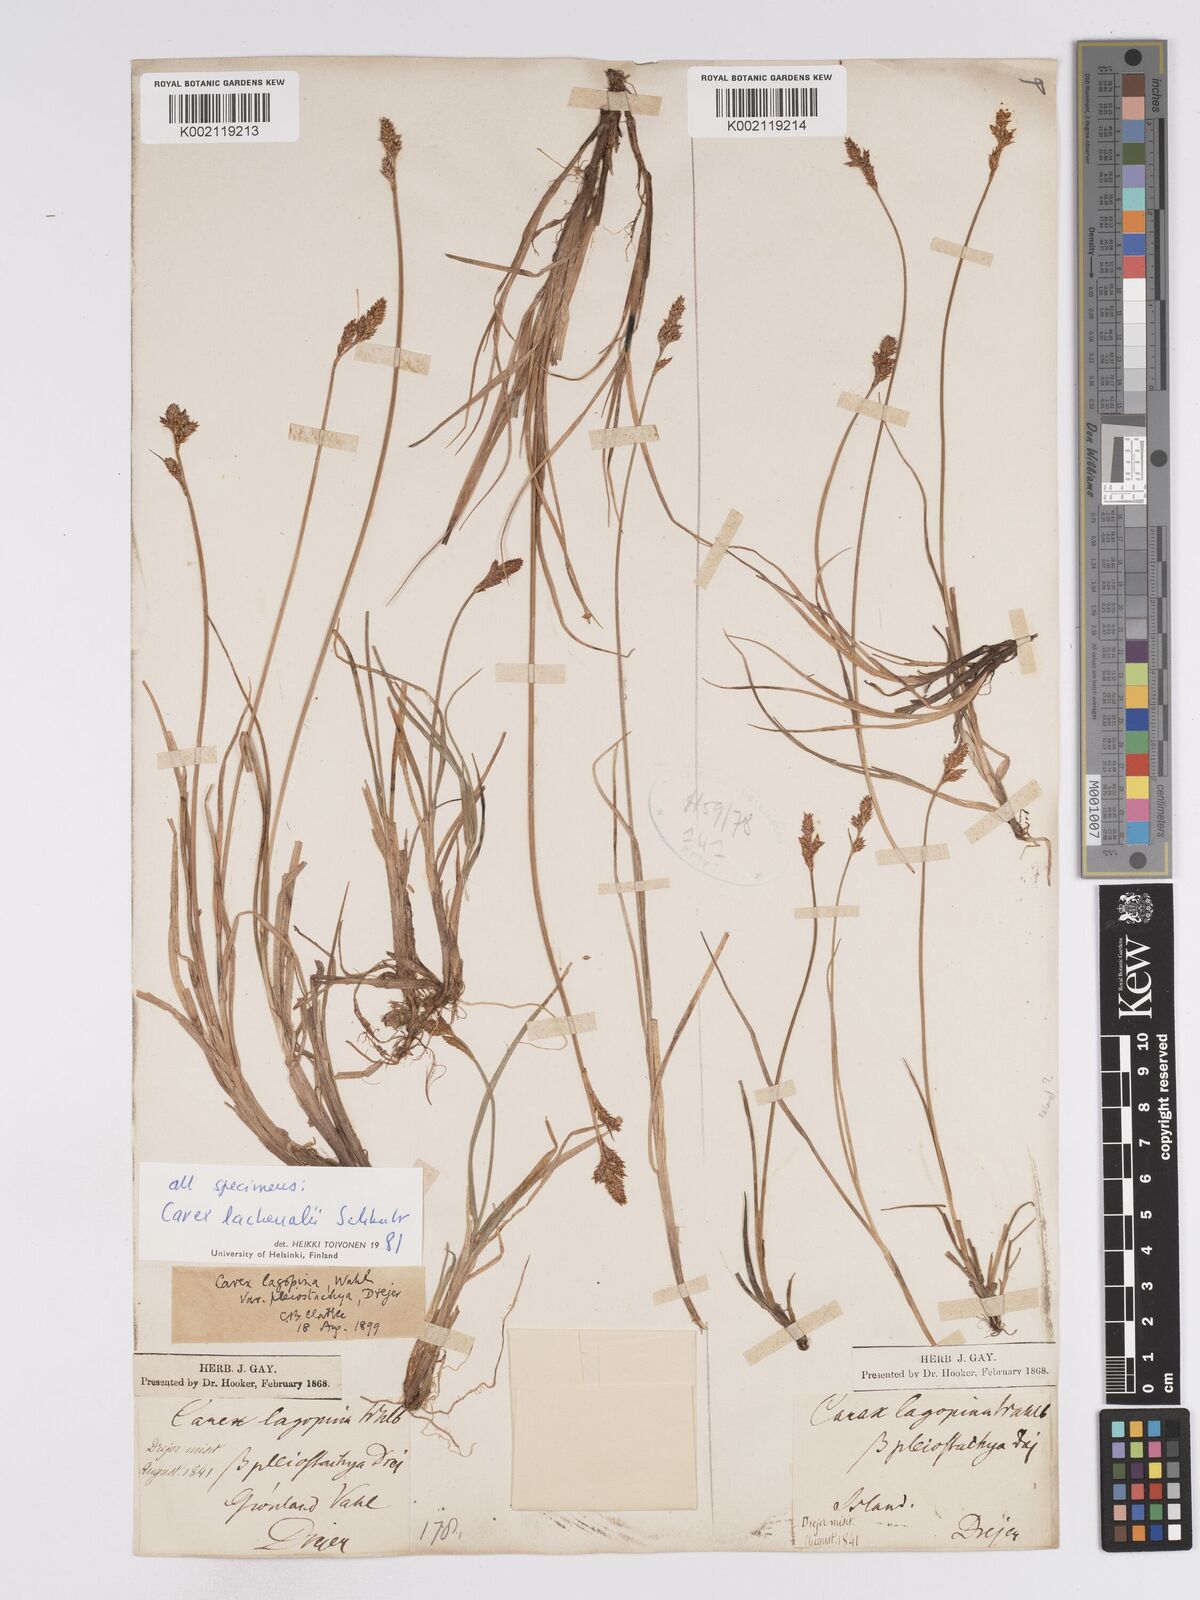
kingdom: Plantae
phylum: Tracheophyta
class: Liliopsida
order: Poales
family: Cyperaceae
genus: Carex
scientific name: Carex lachenalii
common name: Hare's-foot sedge
